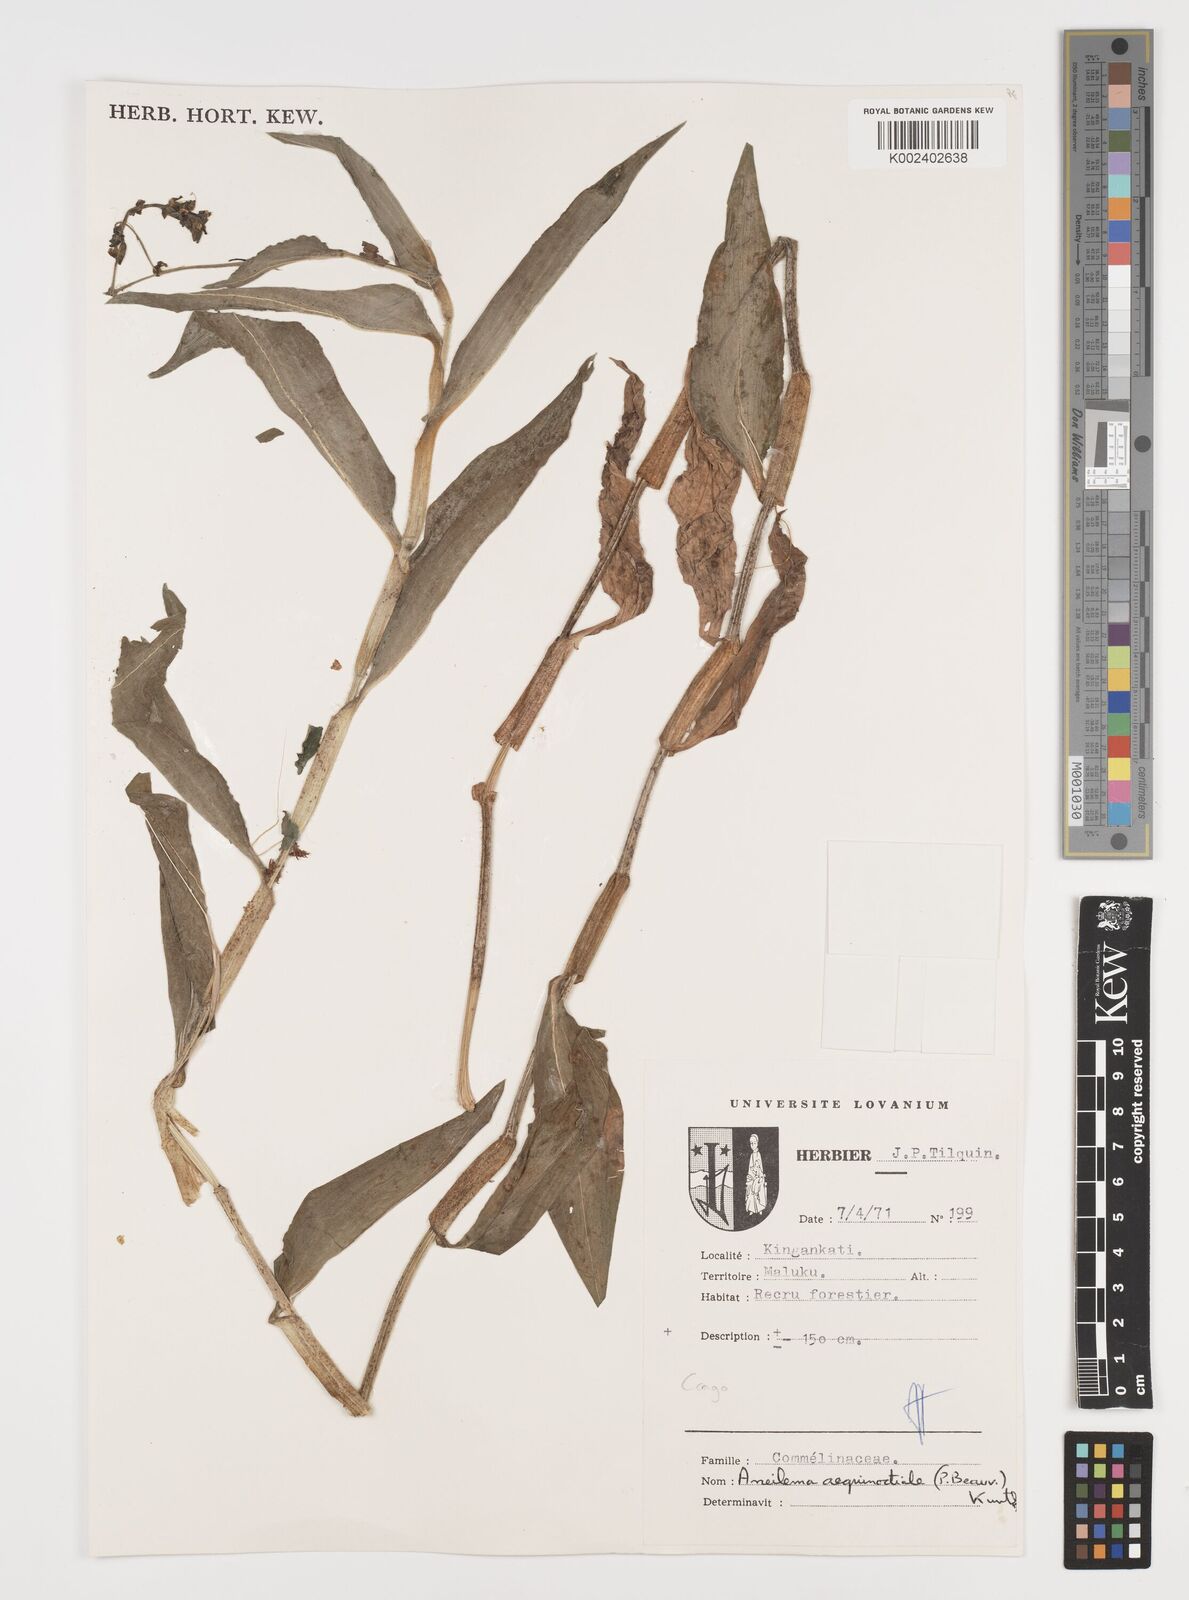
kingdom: Plantae
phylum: Tracheophyta
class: Liliopsida
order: Commelinales
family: Commelinaceae
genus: Aneilema
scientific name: Aneilema aequinoctiale
